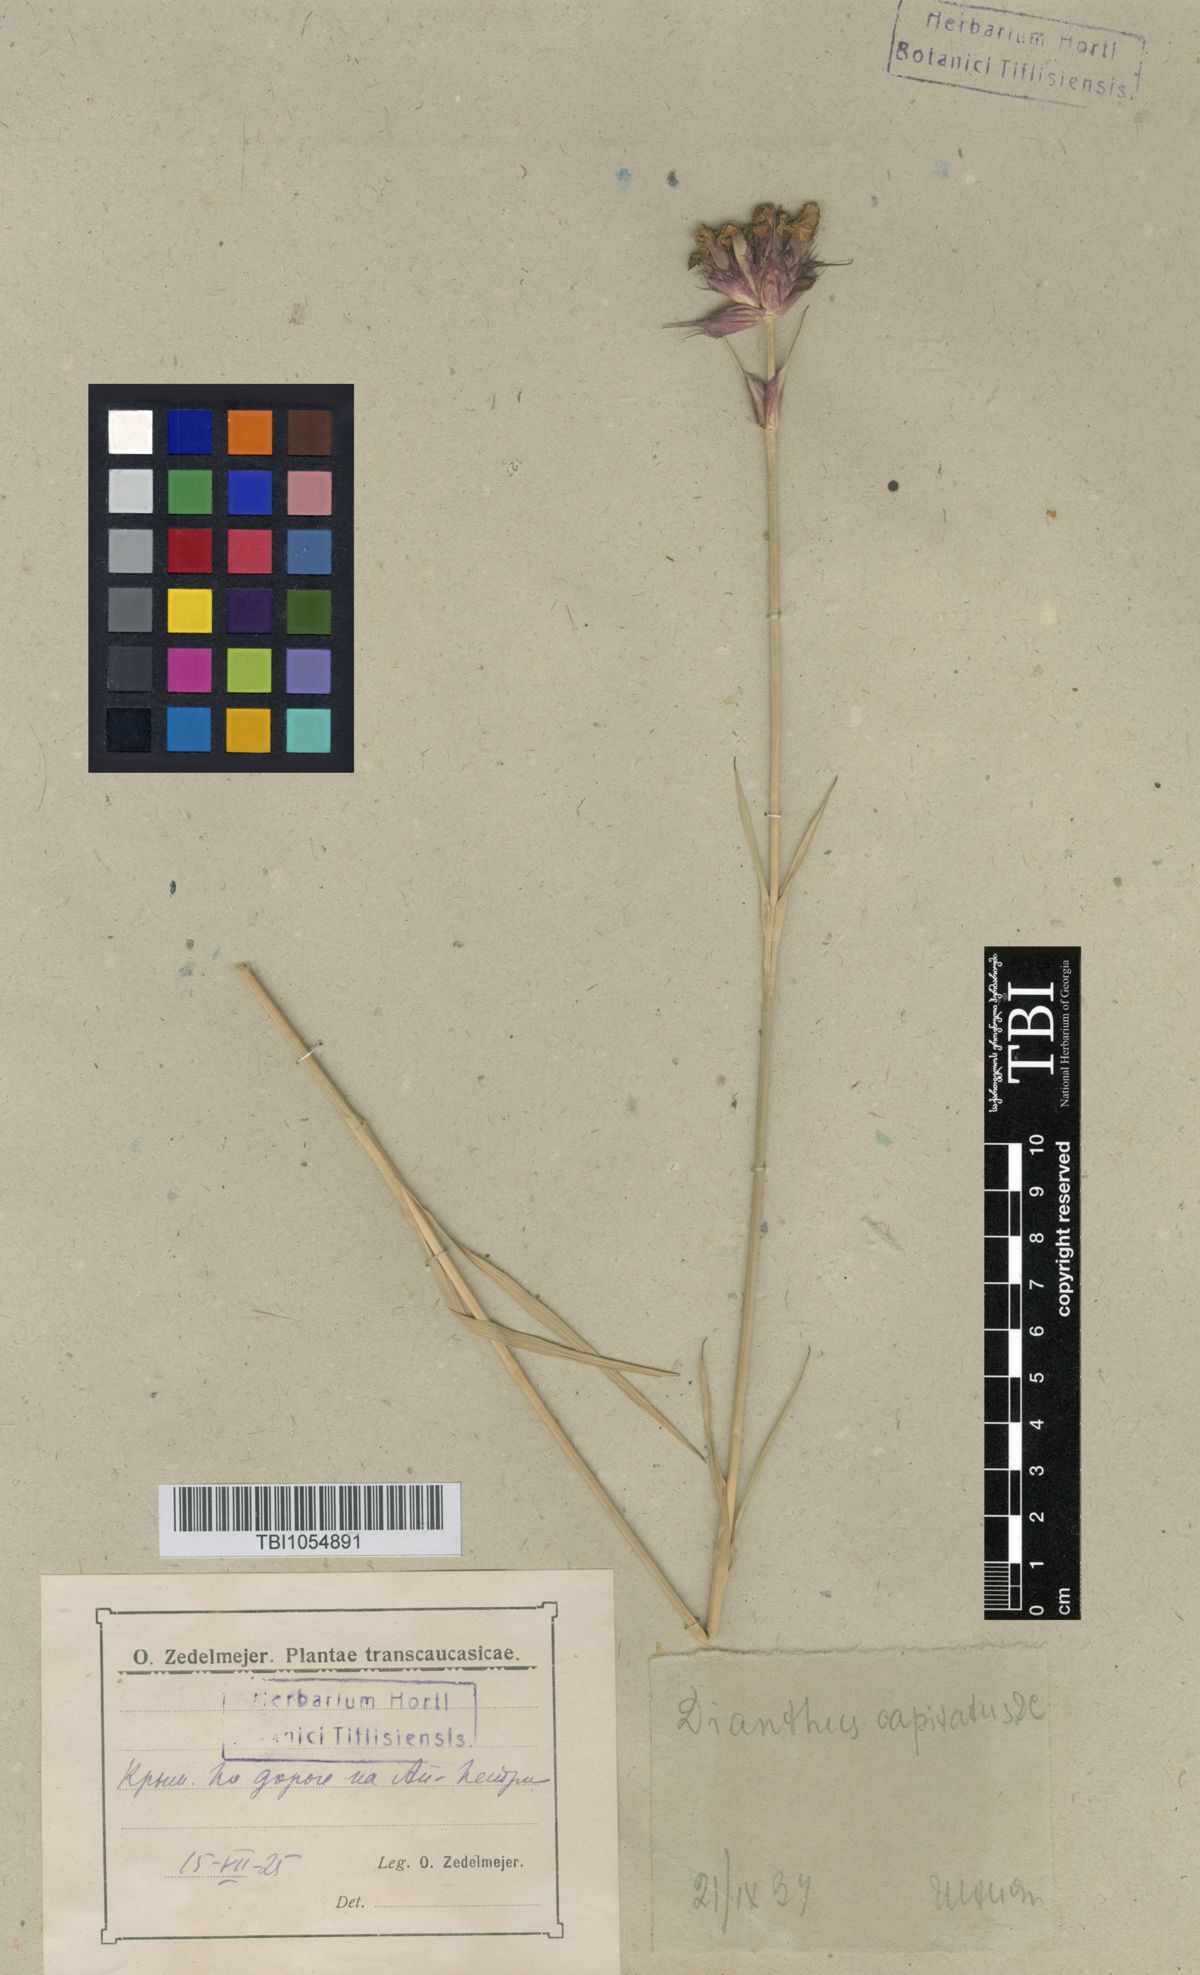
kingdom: Plantae
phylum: Tracheophyta
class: Magnoliopsida
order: Caryophyllales
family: Caryophyllaceae
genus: Dianthus
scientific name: Dianthus capitatus
